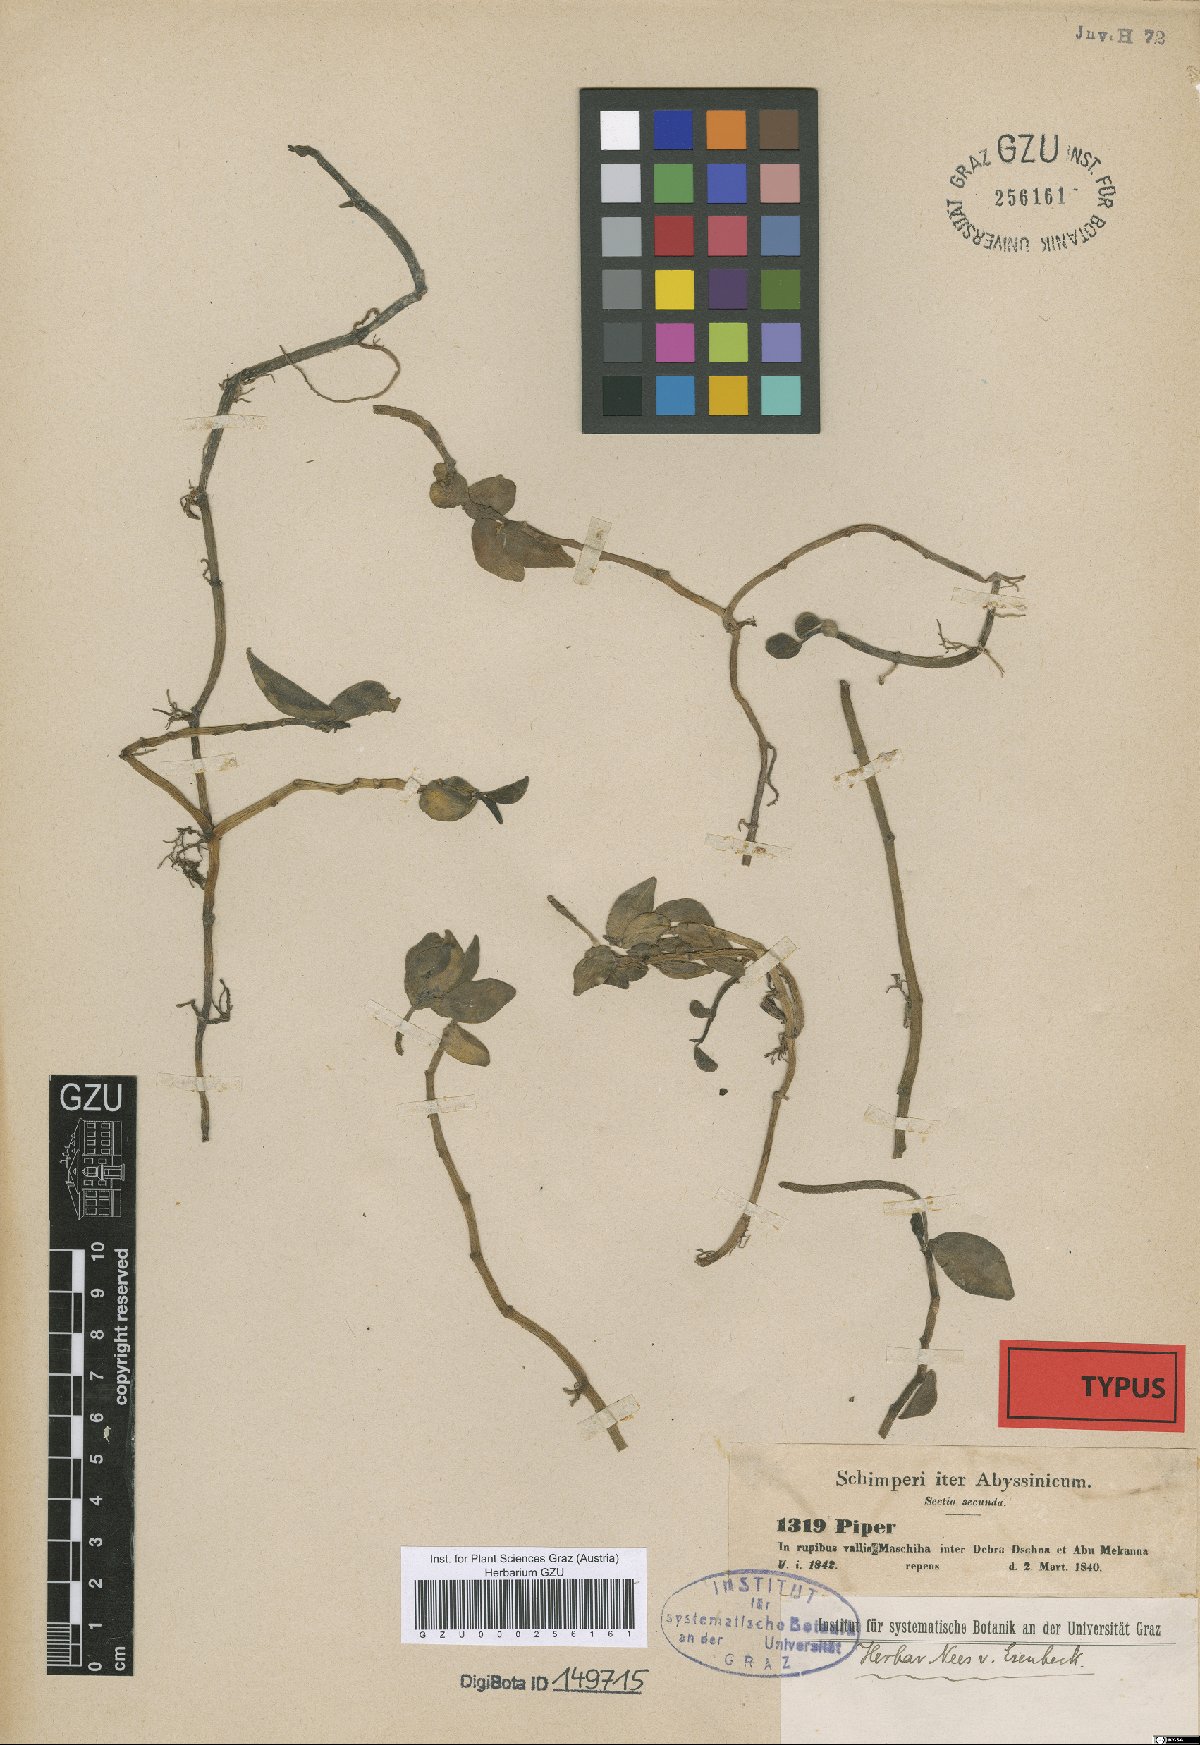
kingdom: Plantae
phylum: Tracheophyta
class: Magnoliopsida
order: Piperales
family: Piperaceae
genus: Peperomia
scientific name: Peperomia abyssinica
